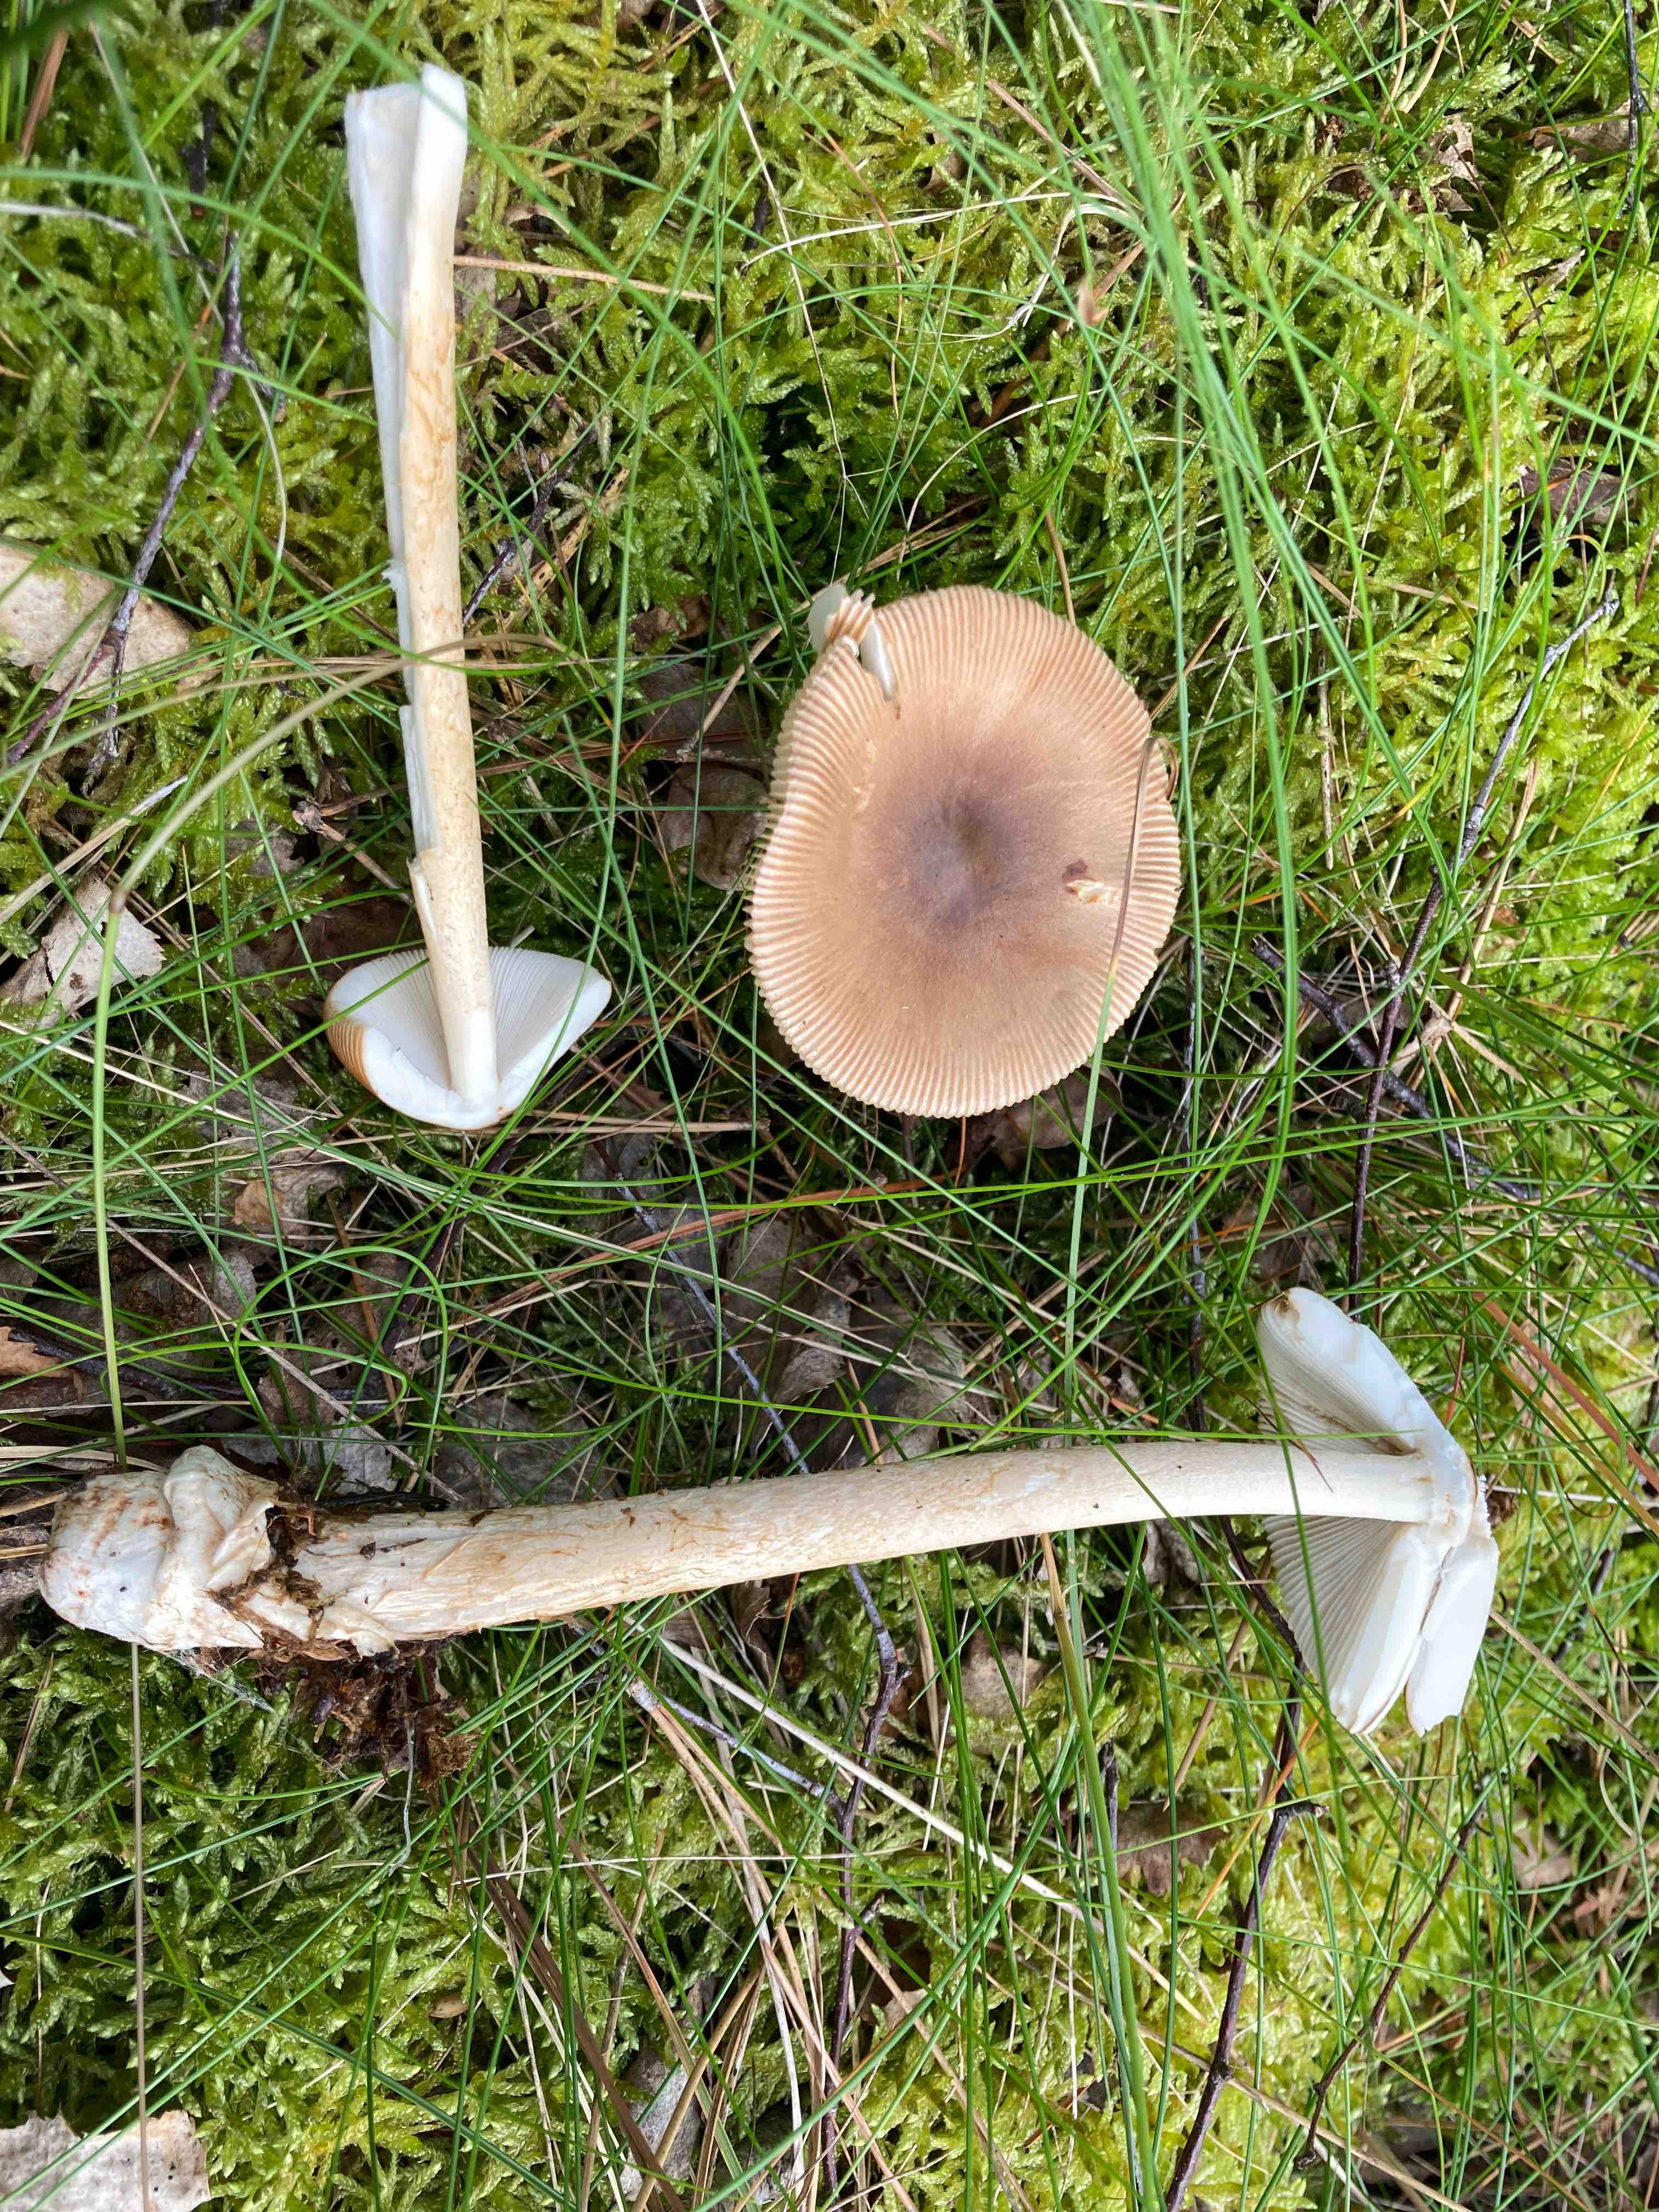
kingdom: Fungi
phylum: Basidiomycota
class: Agaricomycetes
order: Agaricales
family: Amanitaceae
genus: Amanita
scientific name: Amanita fulva
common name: brun kam-fluesvamp
